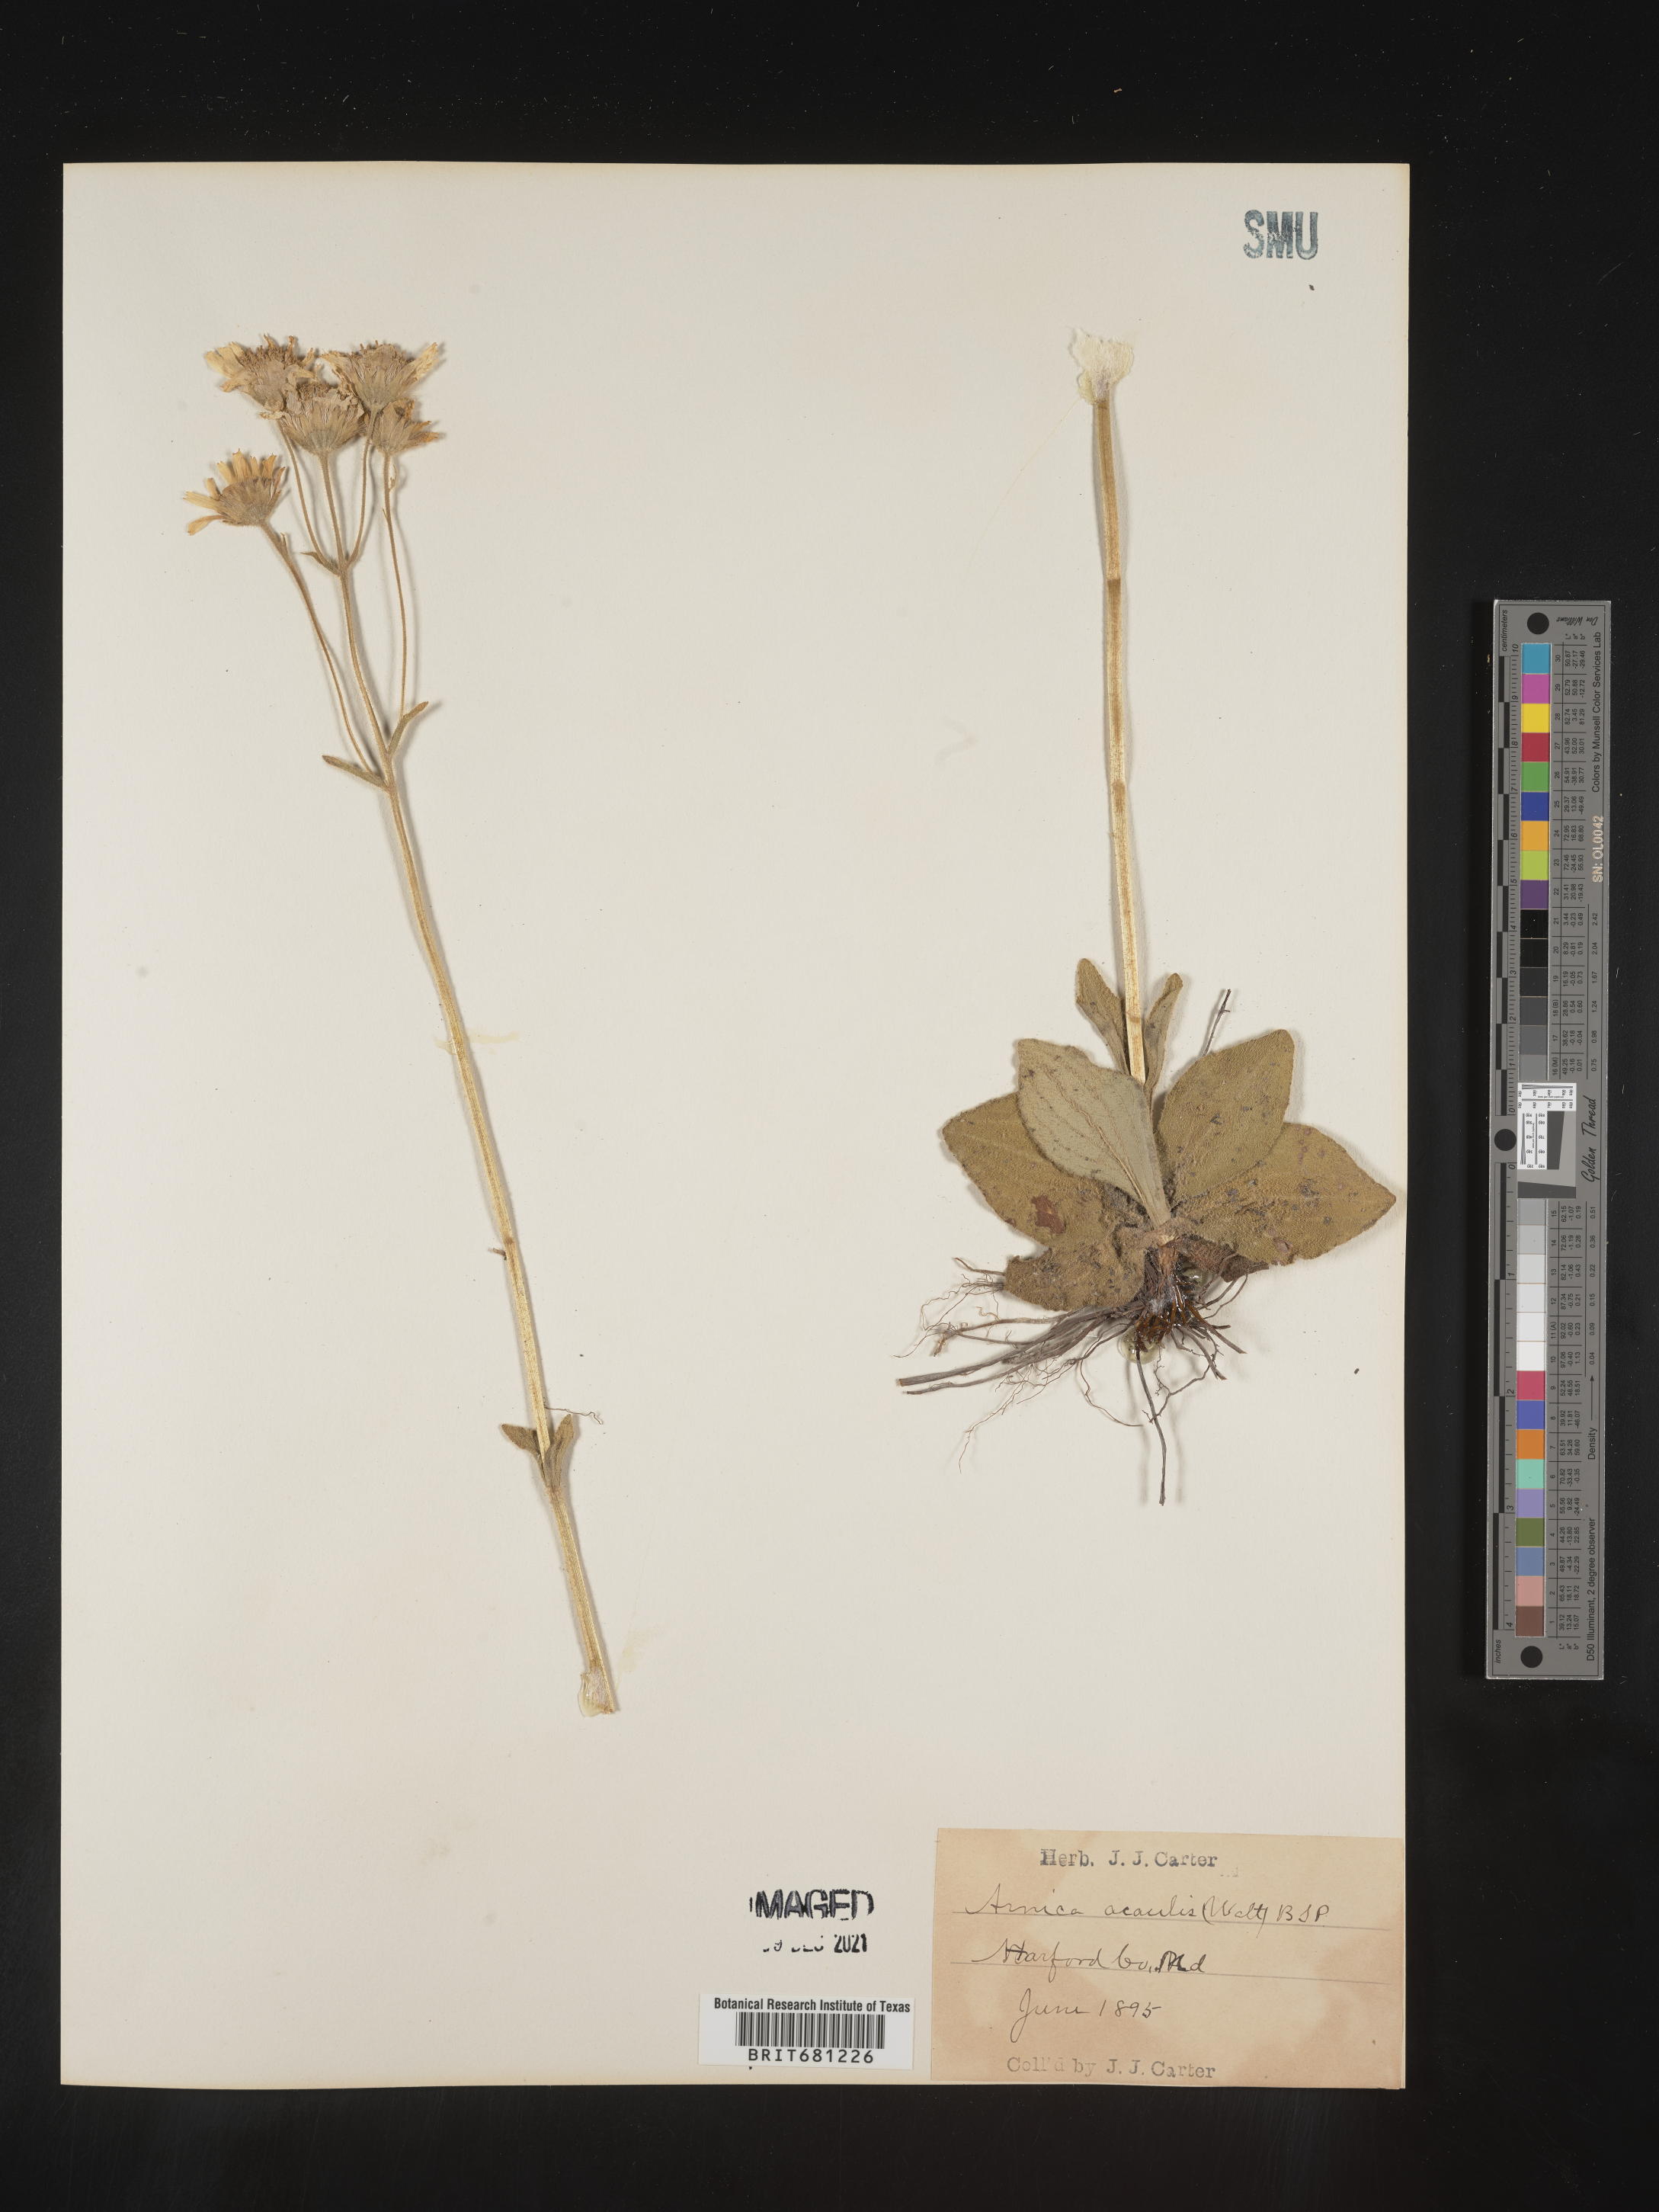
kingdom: Plantae
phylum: Tracheophyta
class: Magnoliopsida
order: Asterales
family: Asteraceae
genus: Arnica
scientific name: Arnica acaulis
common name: Common leopardbane
